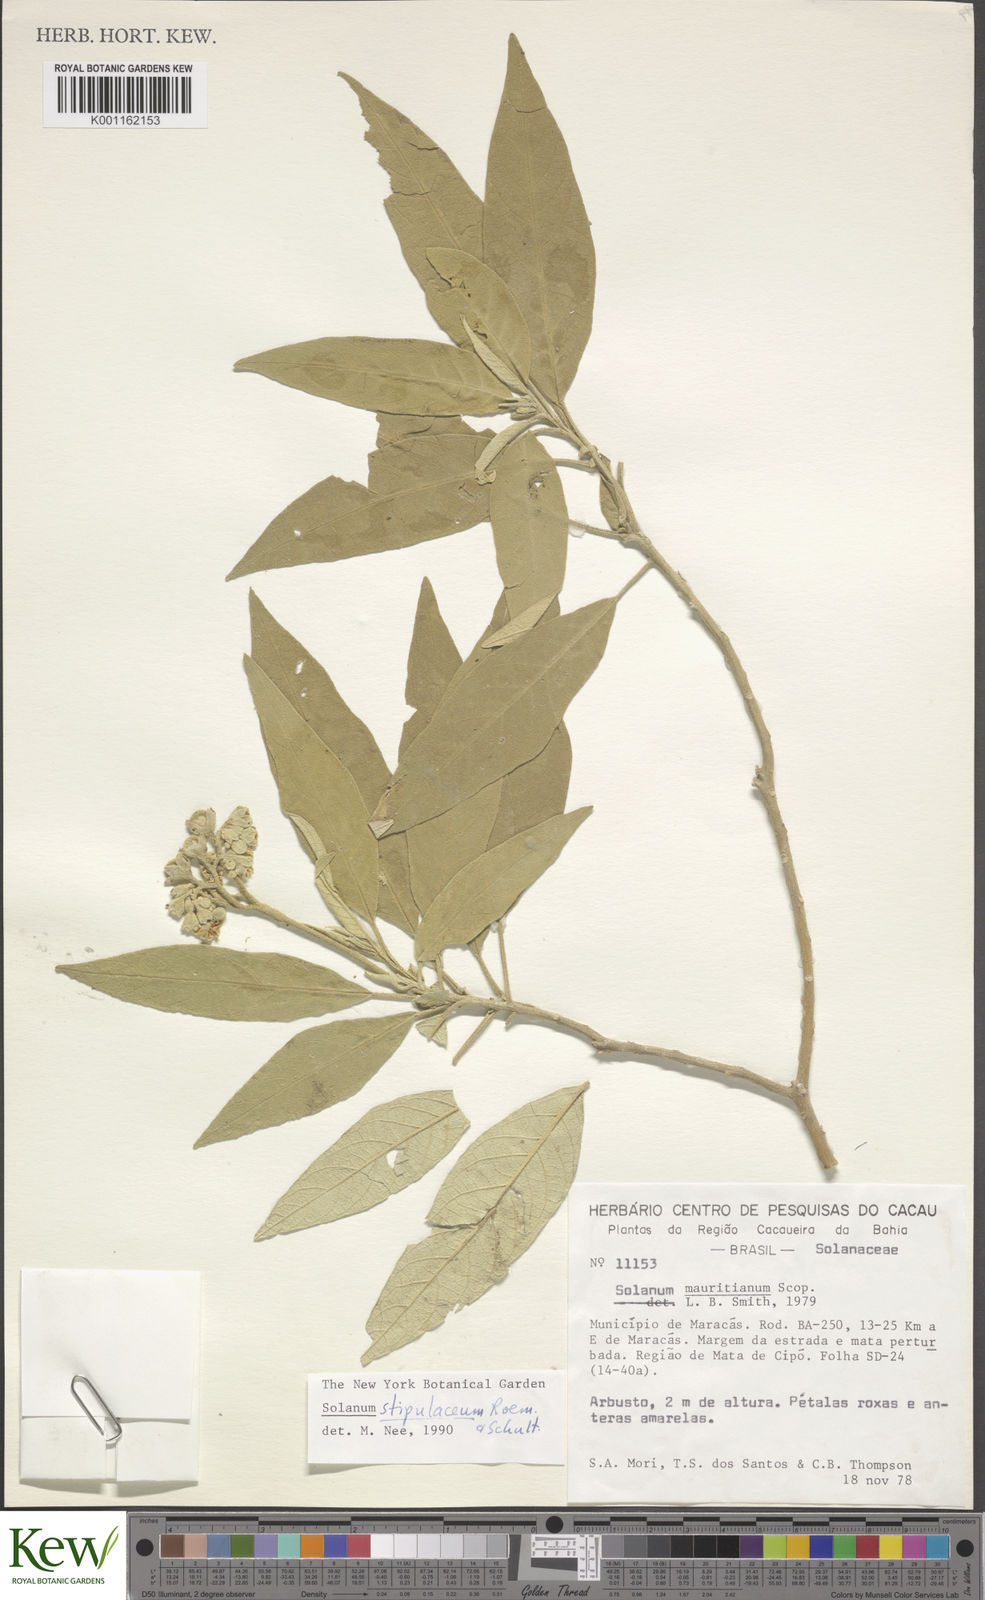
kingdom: Plantae
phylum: Tracheophyta
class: Magnoliopsida
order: Solanales
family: Solanaceae
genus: Solanum
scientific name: Solanum stipulaceum
